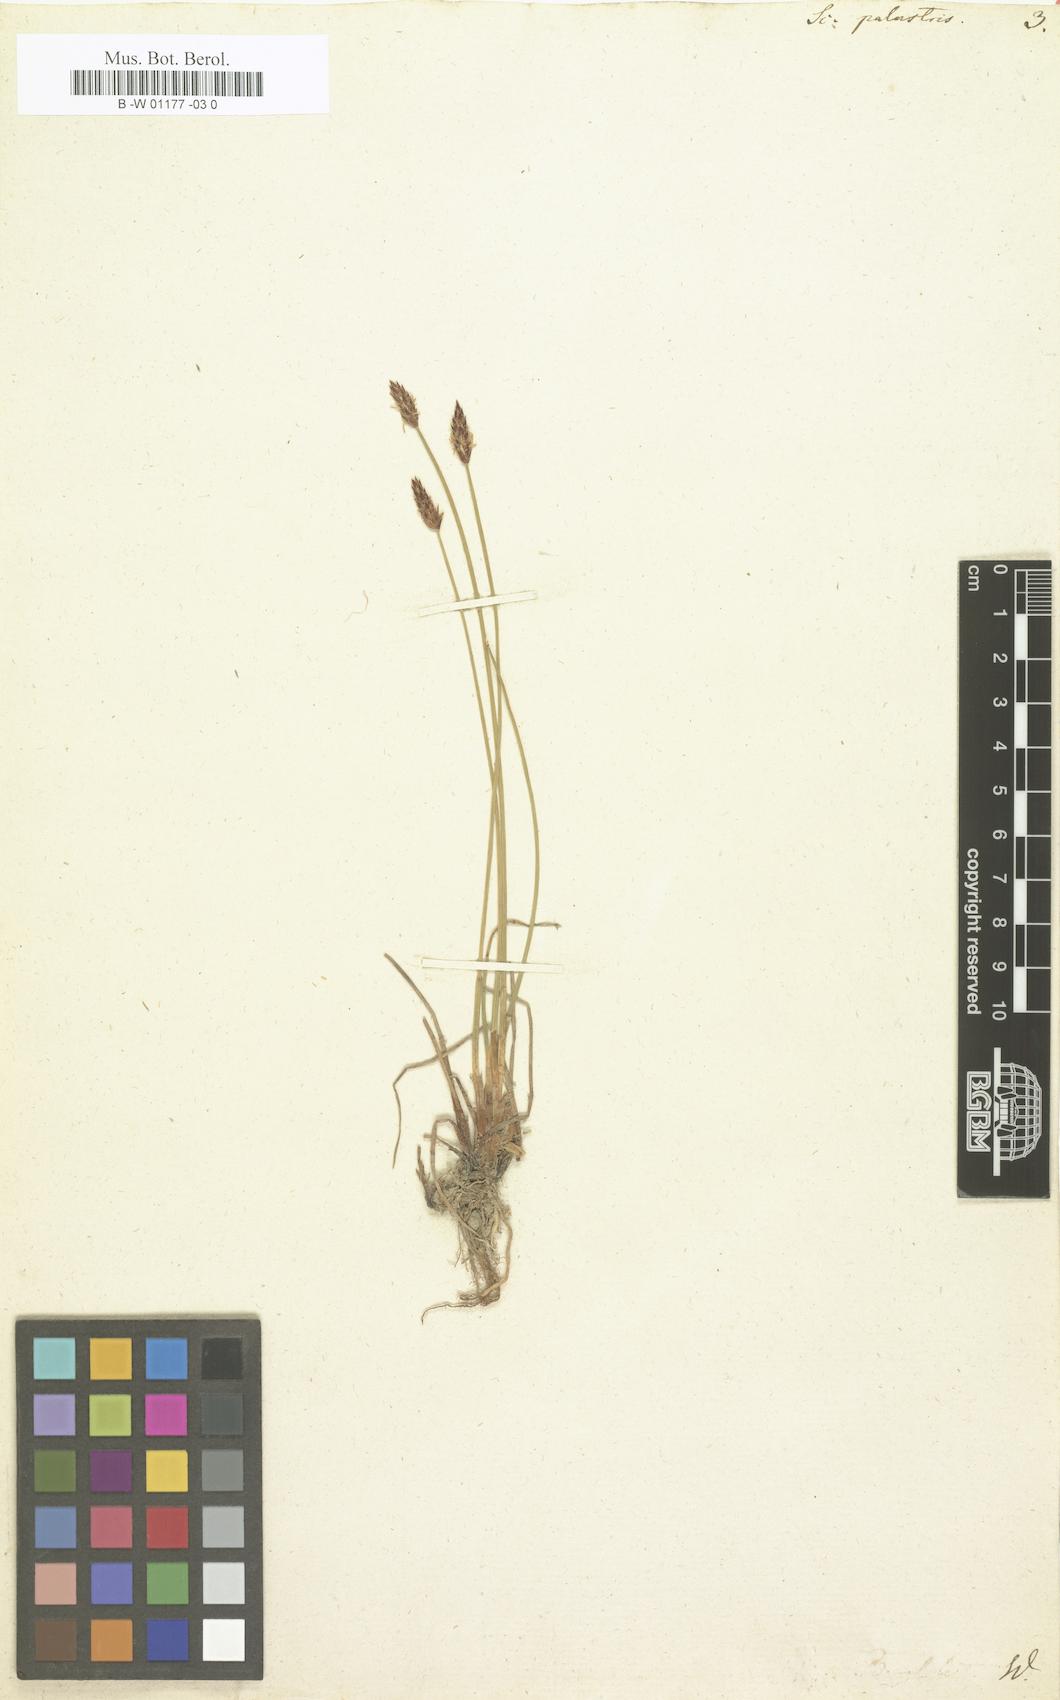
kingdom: Plantae
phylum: Tracheophyta
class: Liliopsida
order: Poales
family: Cyperaceae
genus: Eleocharis
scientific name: Eleocharis palustris
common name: Common spike-rush
